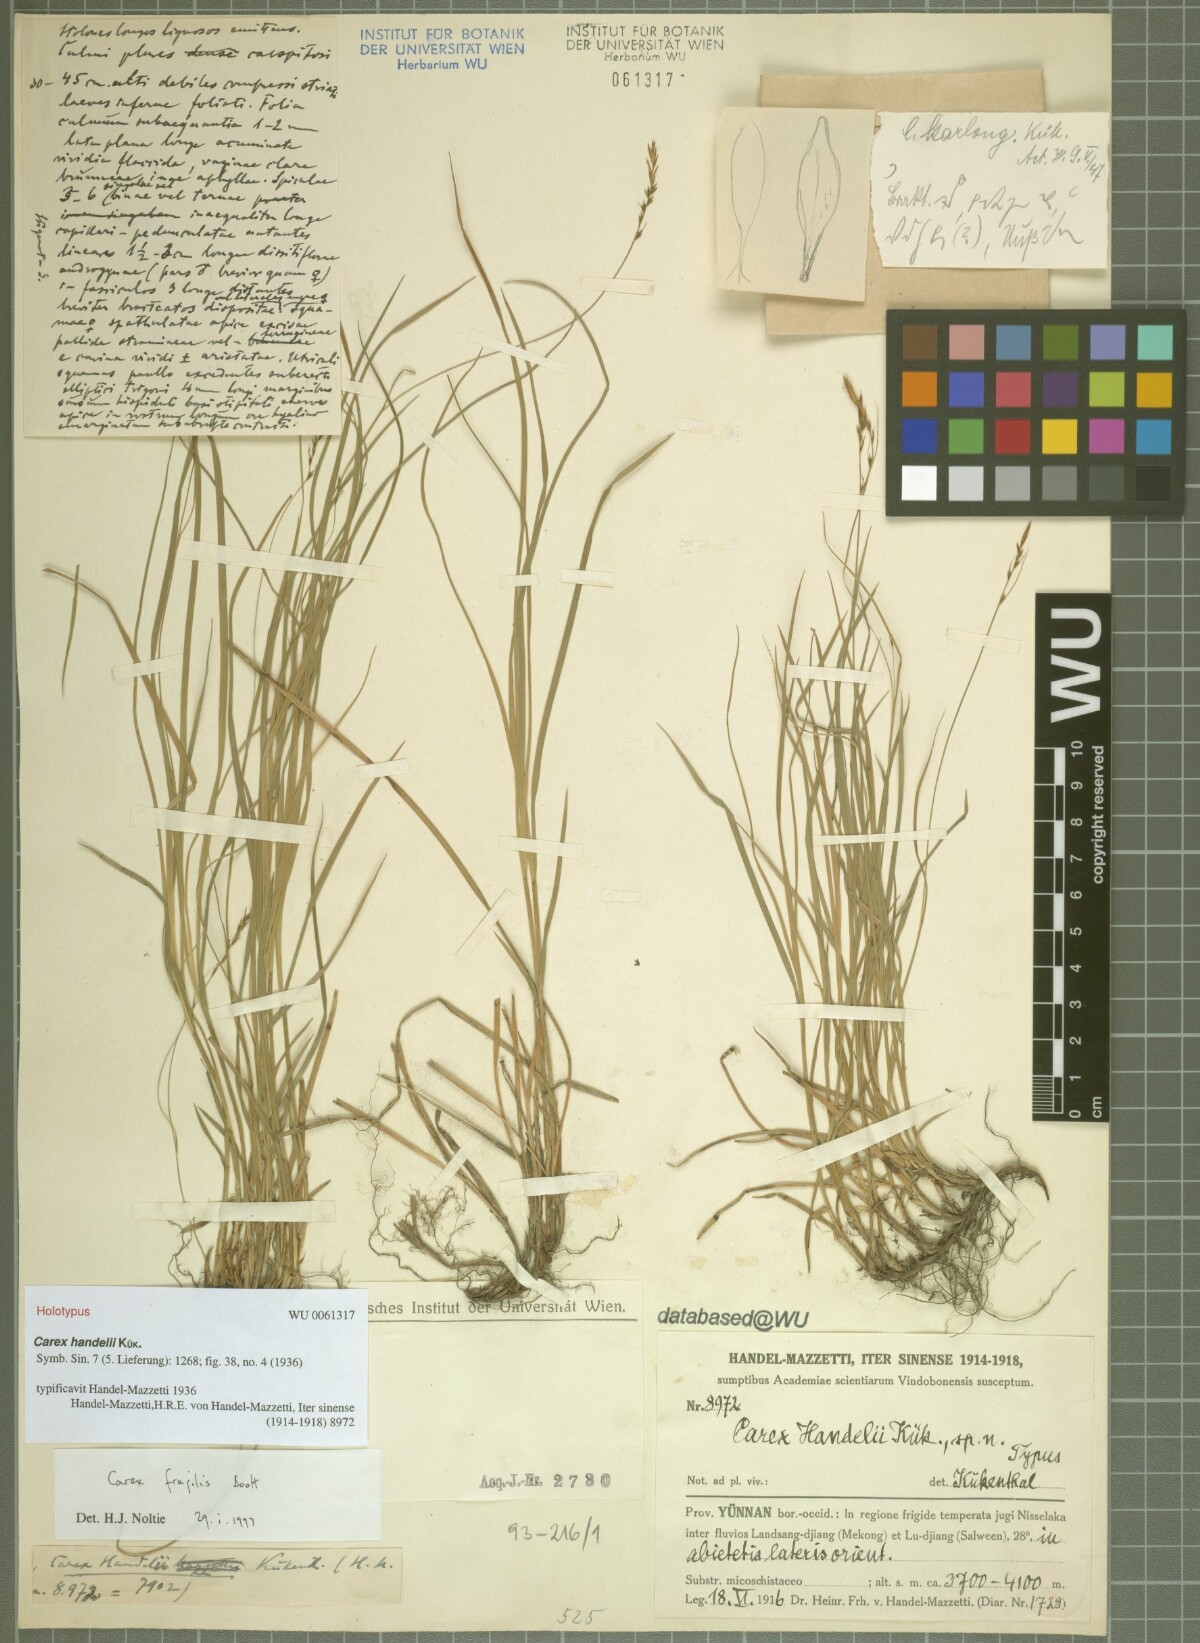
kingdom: Plantae
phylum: Tracheophyta
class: Liliopsida
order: Poales
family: Cyperaceae
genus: Carex
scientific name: Carex handelii
